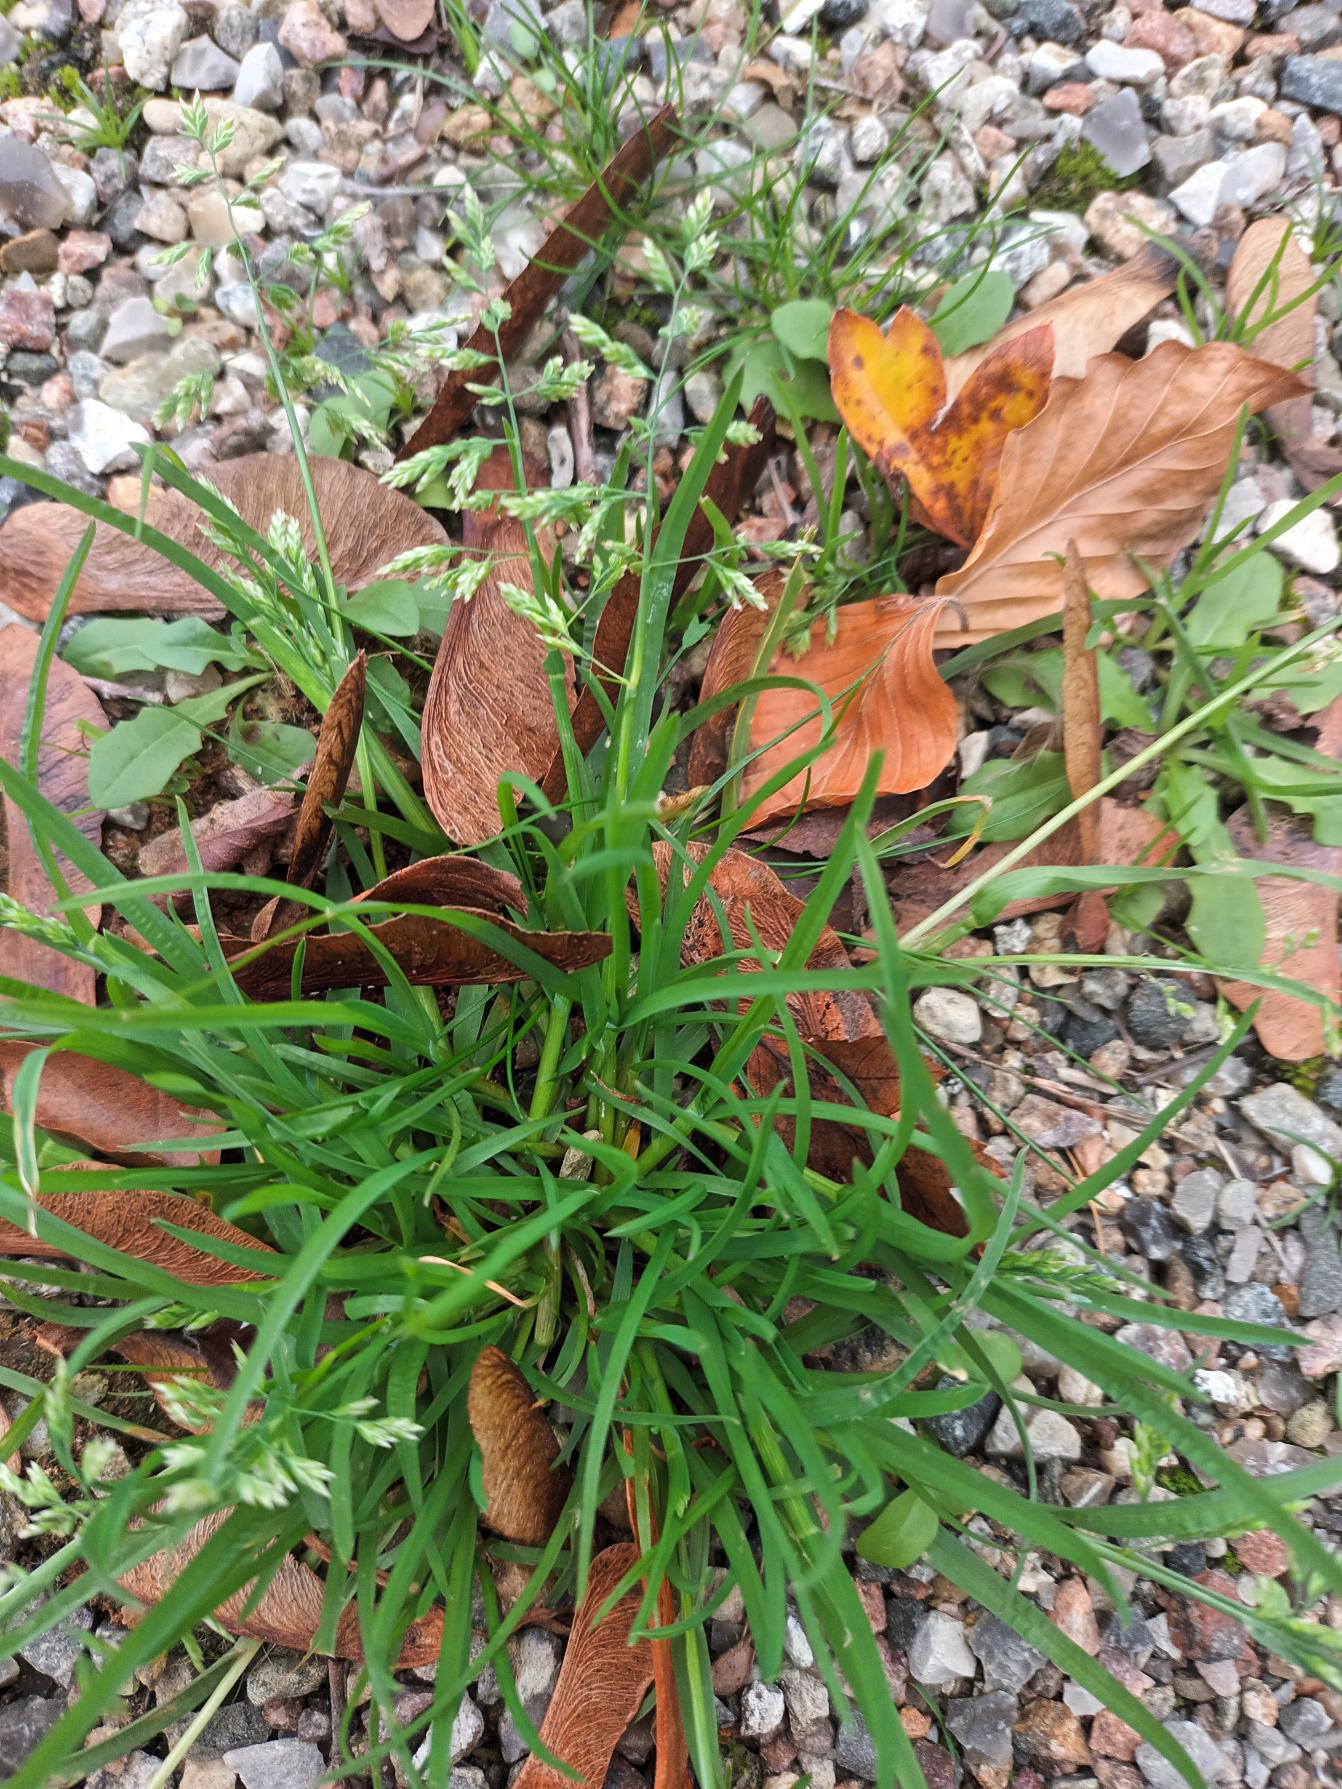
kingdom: Plantae
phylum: Tracheophyta
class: Liliopsida
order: Poales
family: Poaceae
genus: Poa
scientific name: Poa annua
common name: Enårig rapgræs
